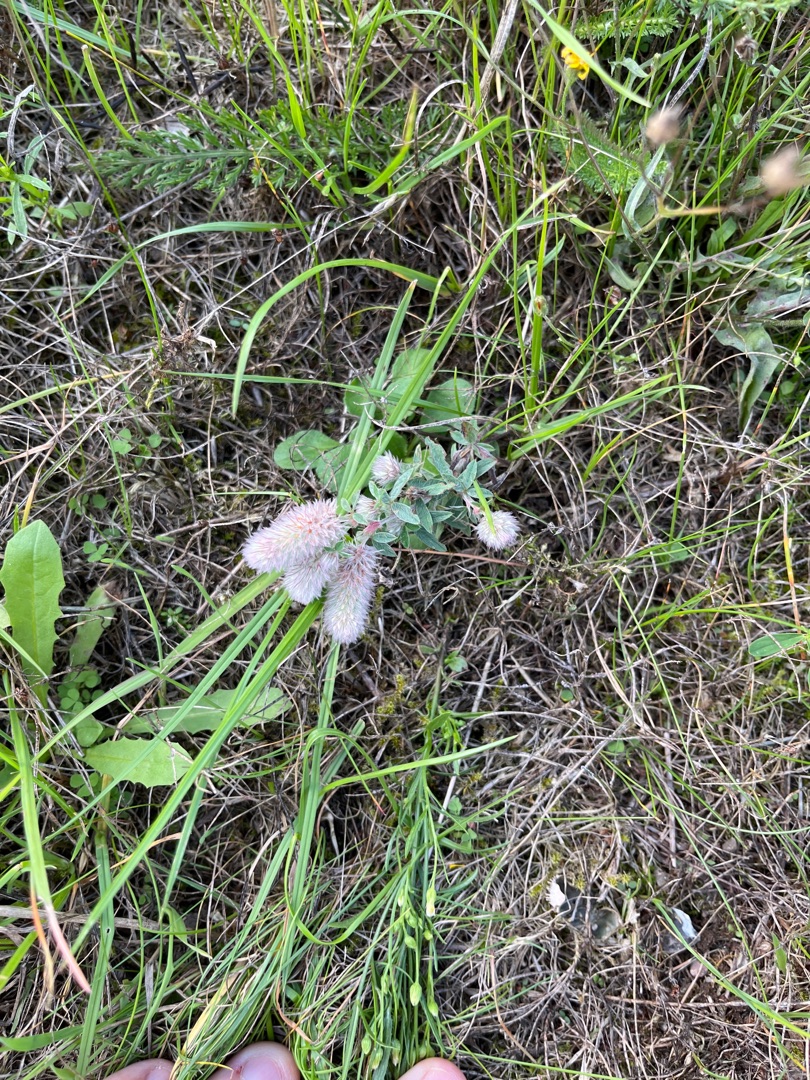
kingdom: Plantae
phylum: Tracheophyta
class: Magnoliopsida
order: Fabales
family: Fabaceae
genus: Trifolium
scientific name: Trifolium arvense
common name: Hare-kløver
